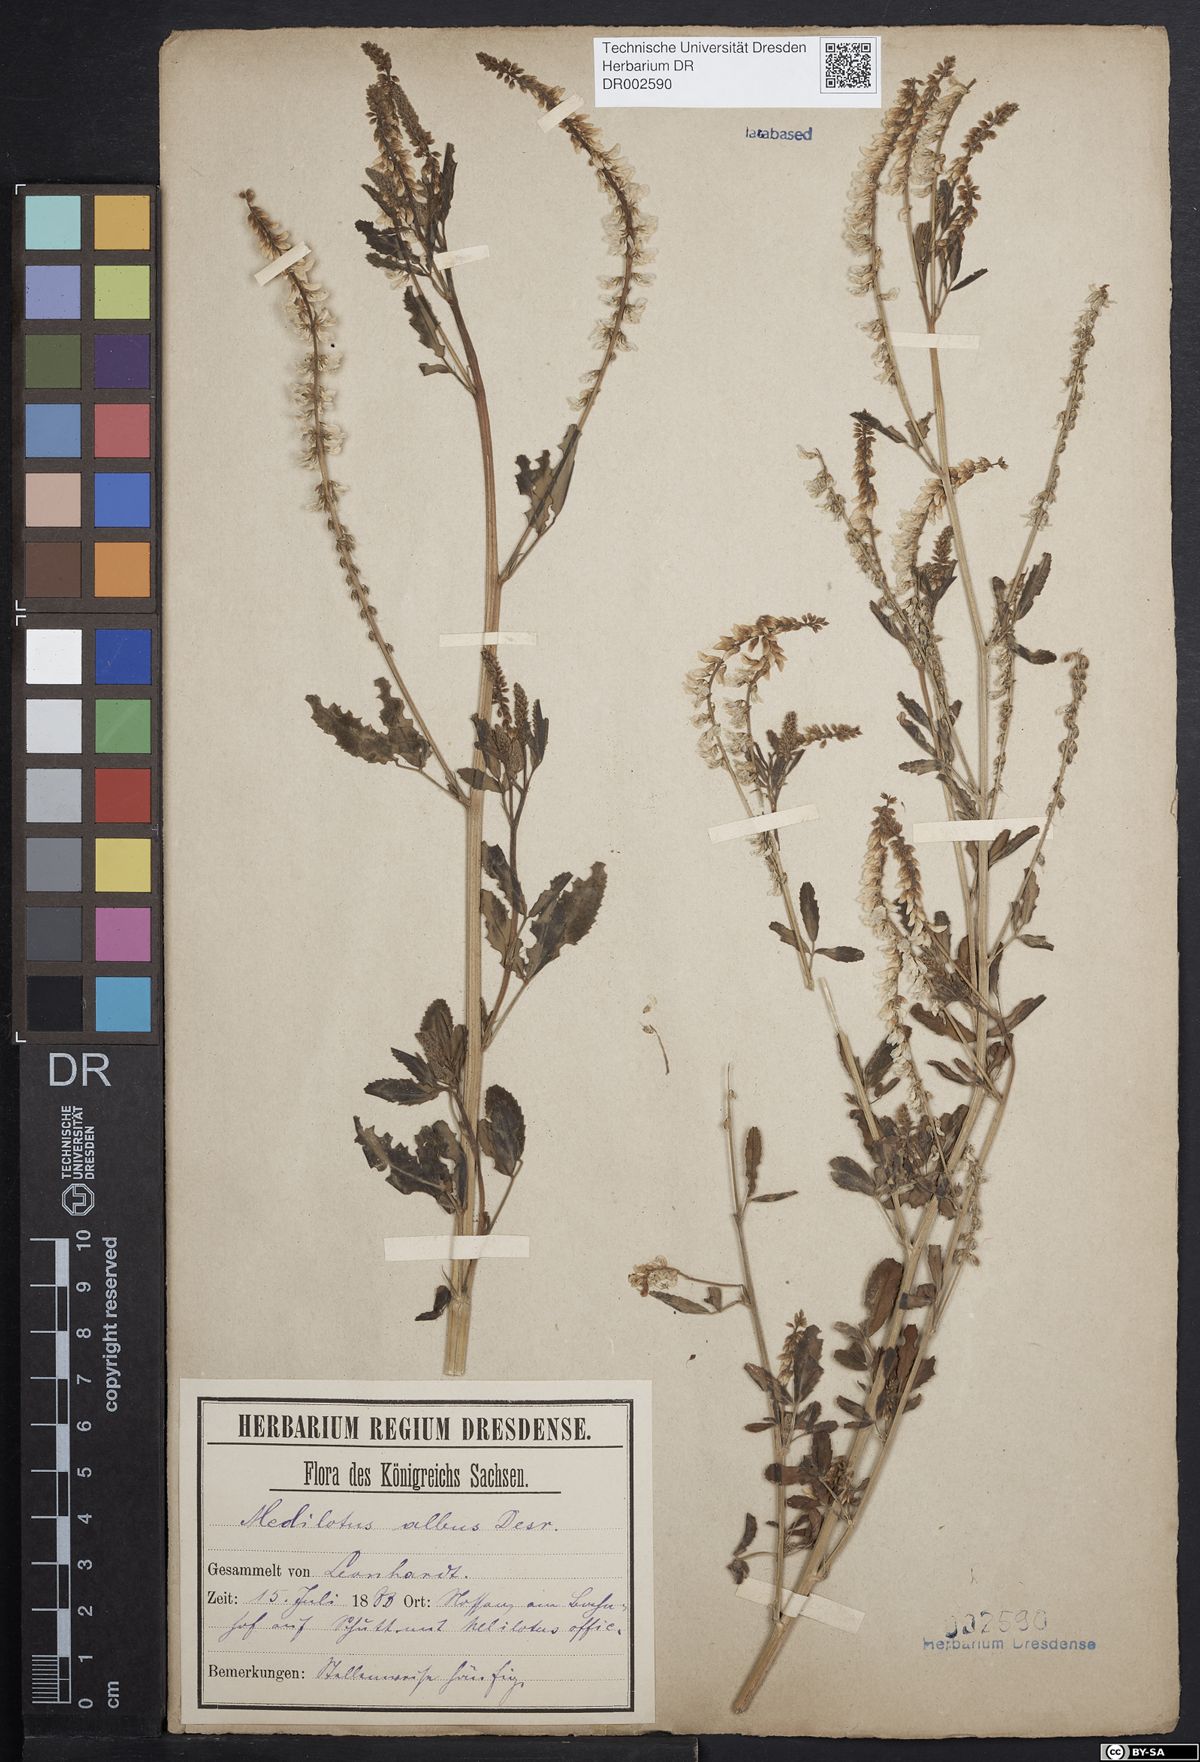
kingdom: Plantae
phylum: Tracheophyta
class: Magnoliopsida
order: Fabales
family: Fabaceae
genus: Melilotus
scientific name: Melilotus albus
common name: White melilot
